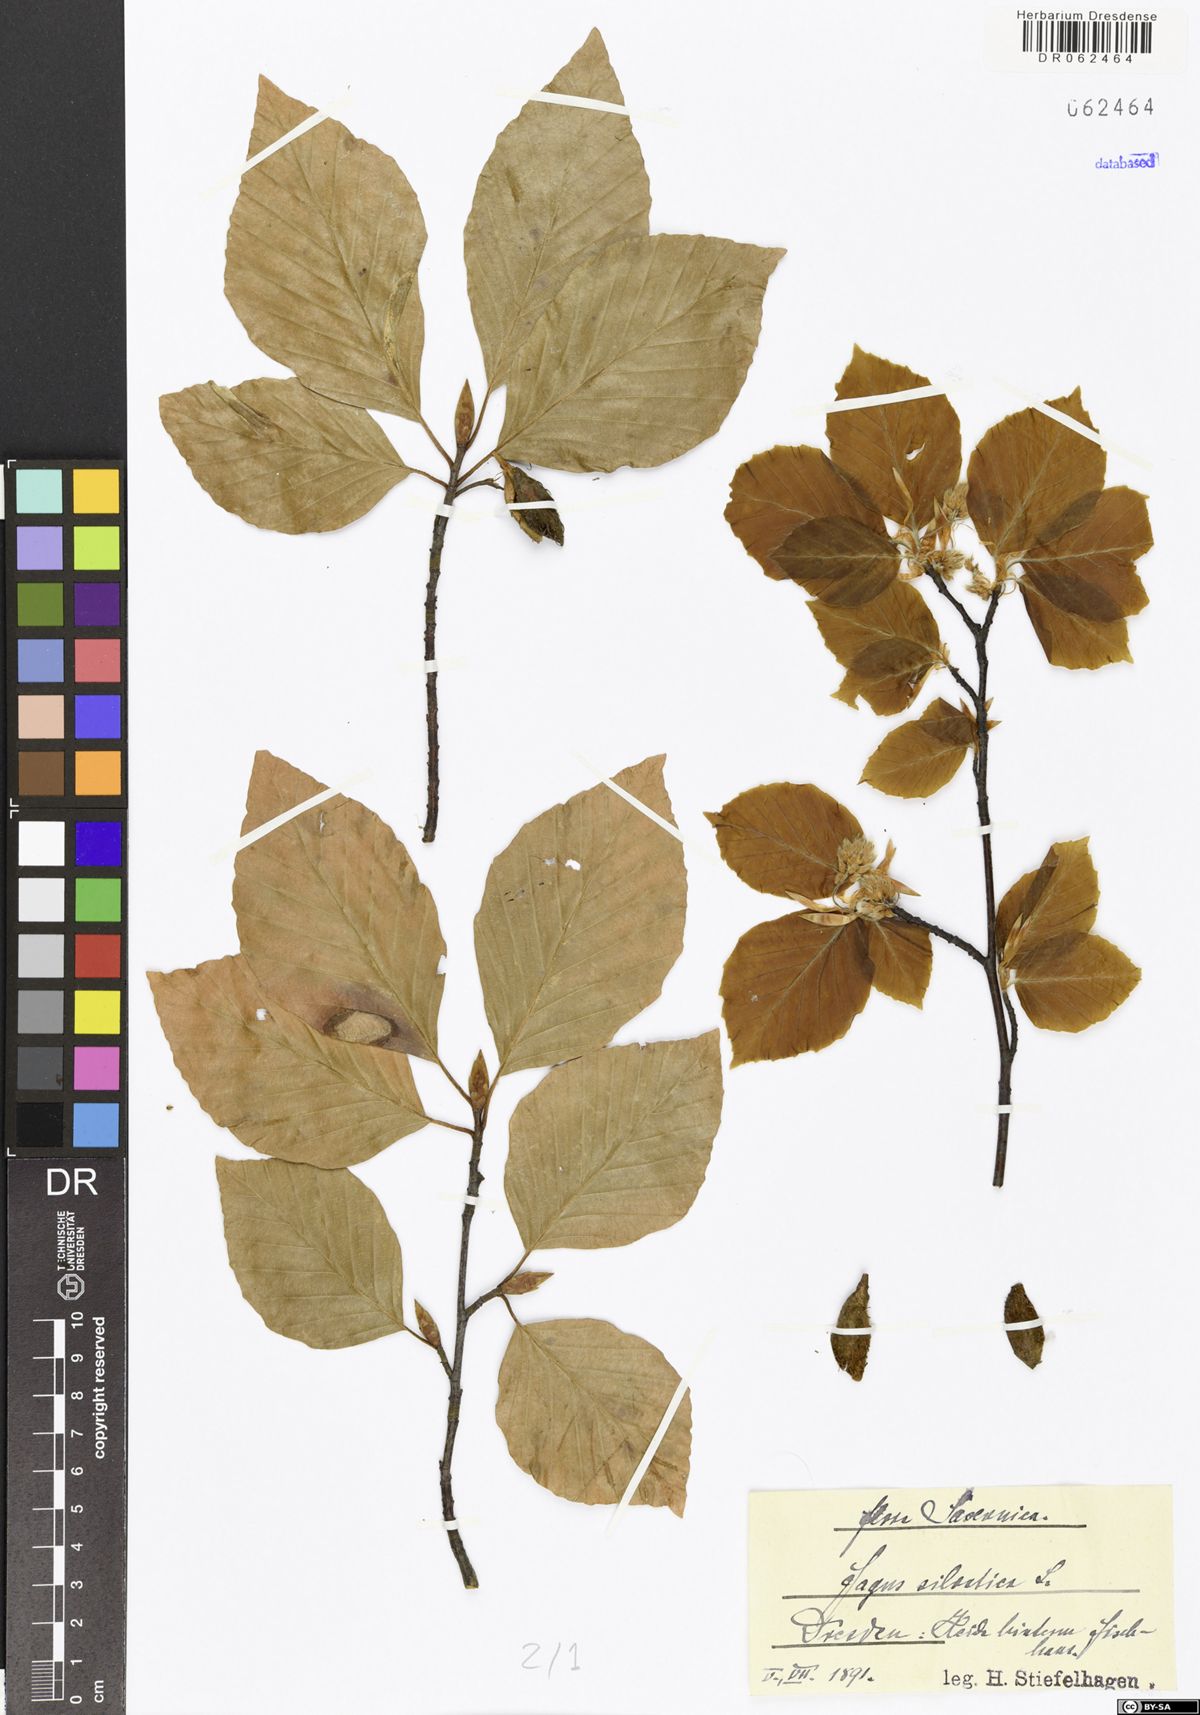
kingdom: Plantae
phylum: Tracheophyta
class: Magnoliopsida
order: Fagales
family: Fagaceae
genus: Fagus
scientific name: Fagus sylvatica
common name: Beech
